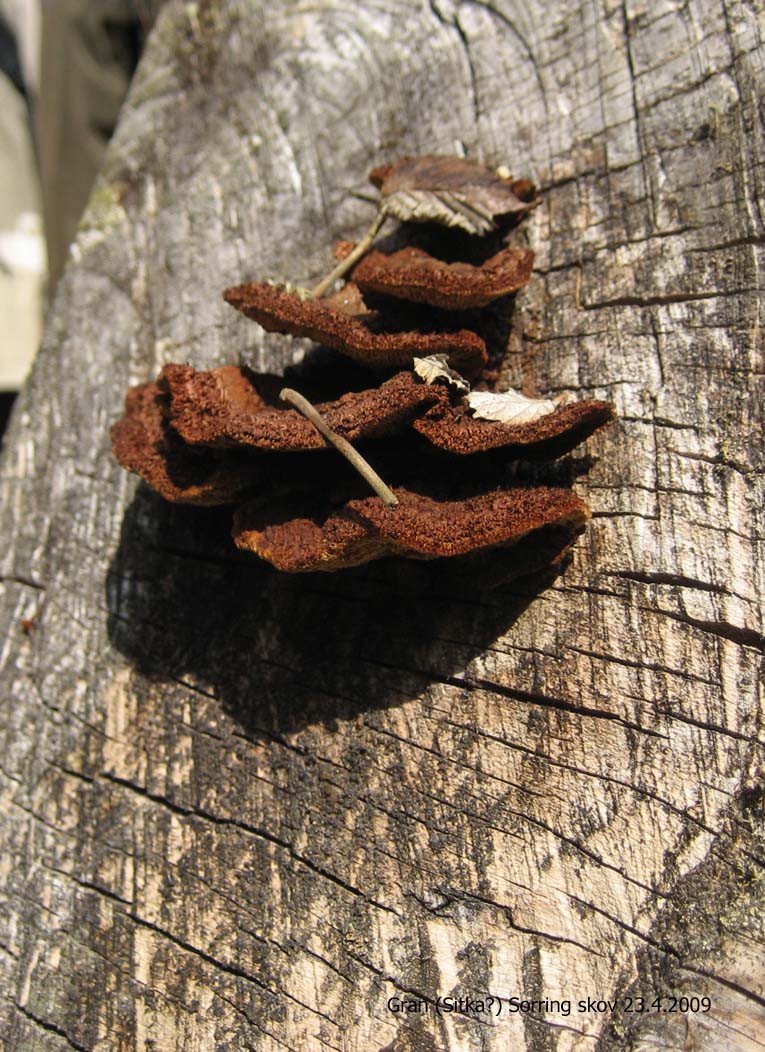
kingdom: Fungi
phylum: Basidiomycota
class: Agaricomycetes
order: Gloeophyllales
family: Gloeophyllaceae
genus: Gloeophyllum
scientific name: Gloeophyllum sepiarium
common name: fyrre-korkhat
